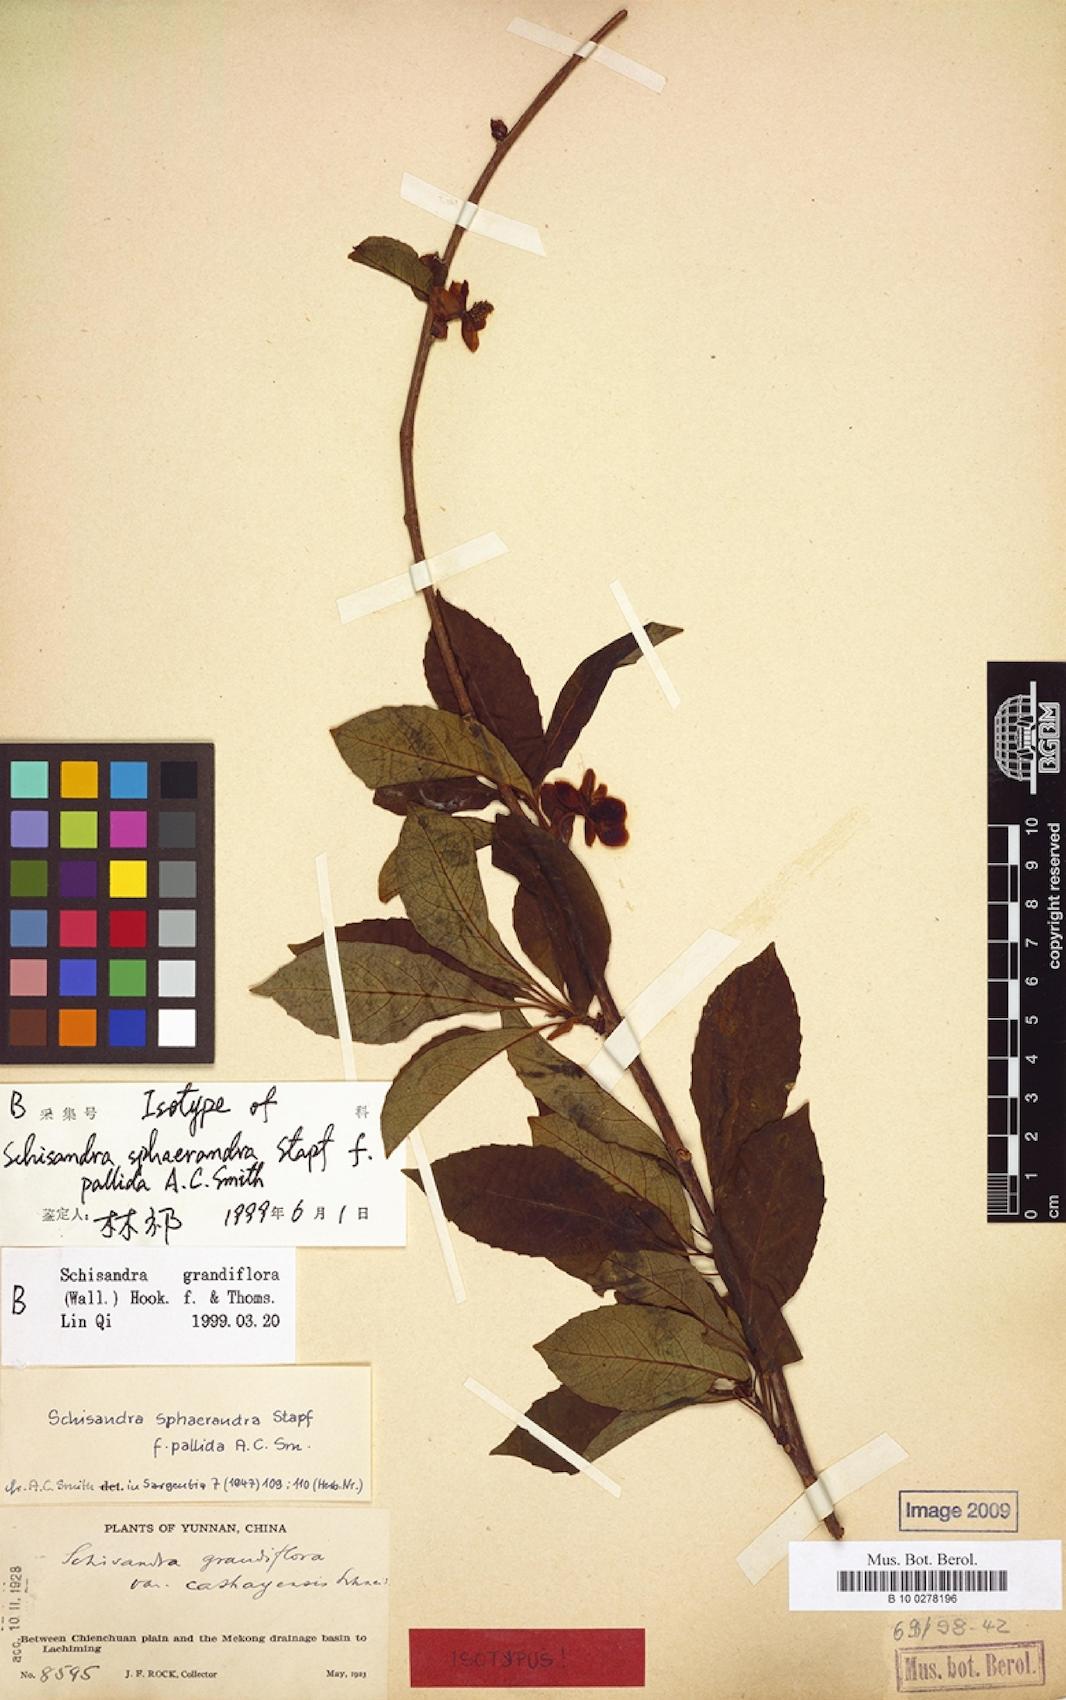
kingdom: Plantae
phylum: Tracheophyta
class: Magnoliopsida
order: Austrobaileyales
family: Schisandraceae
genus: Schisandra
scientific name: Schisandra grandiflora
